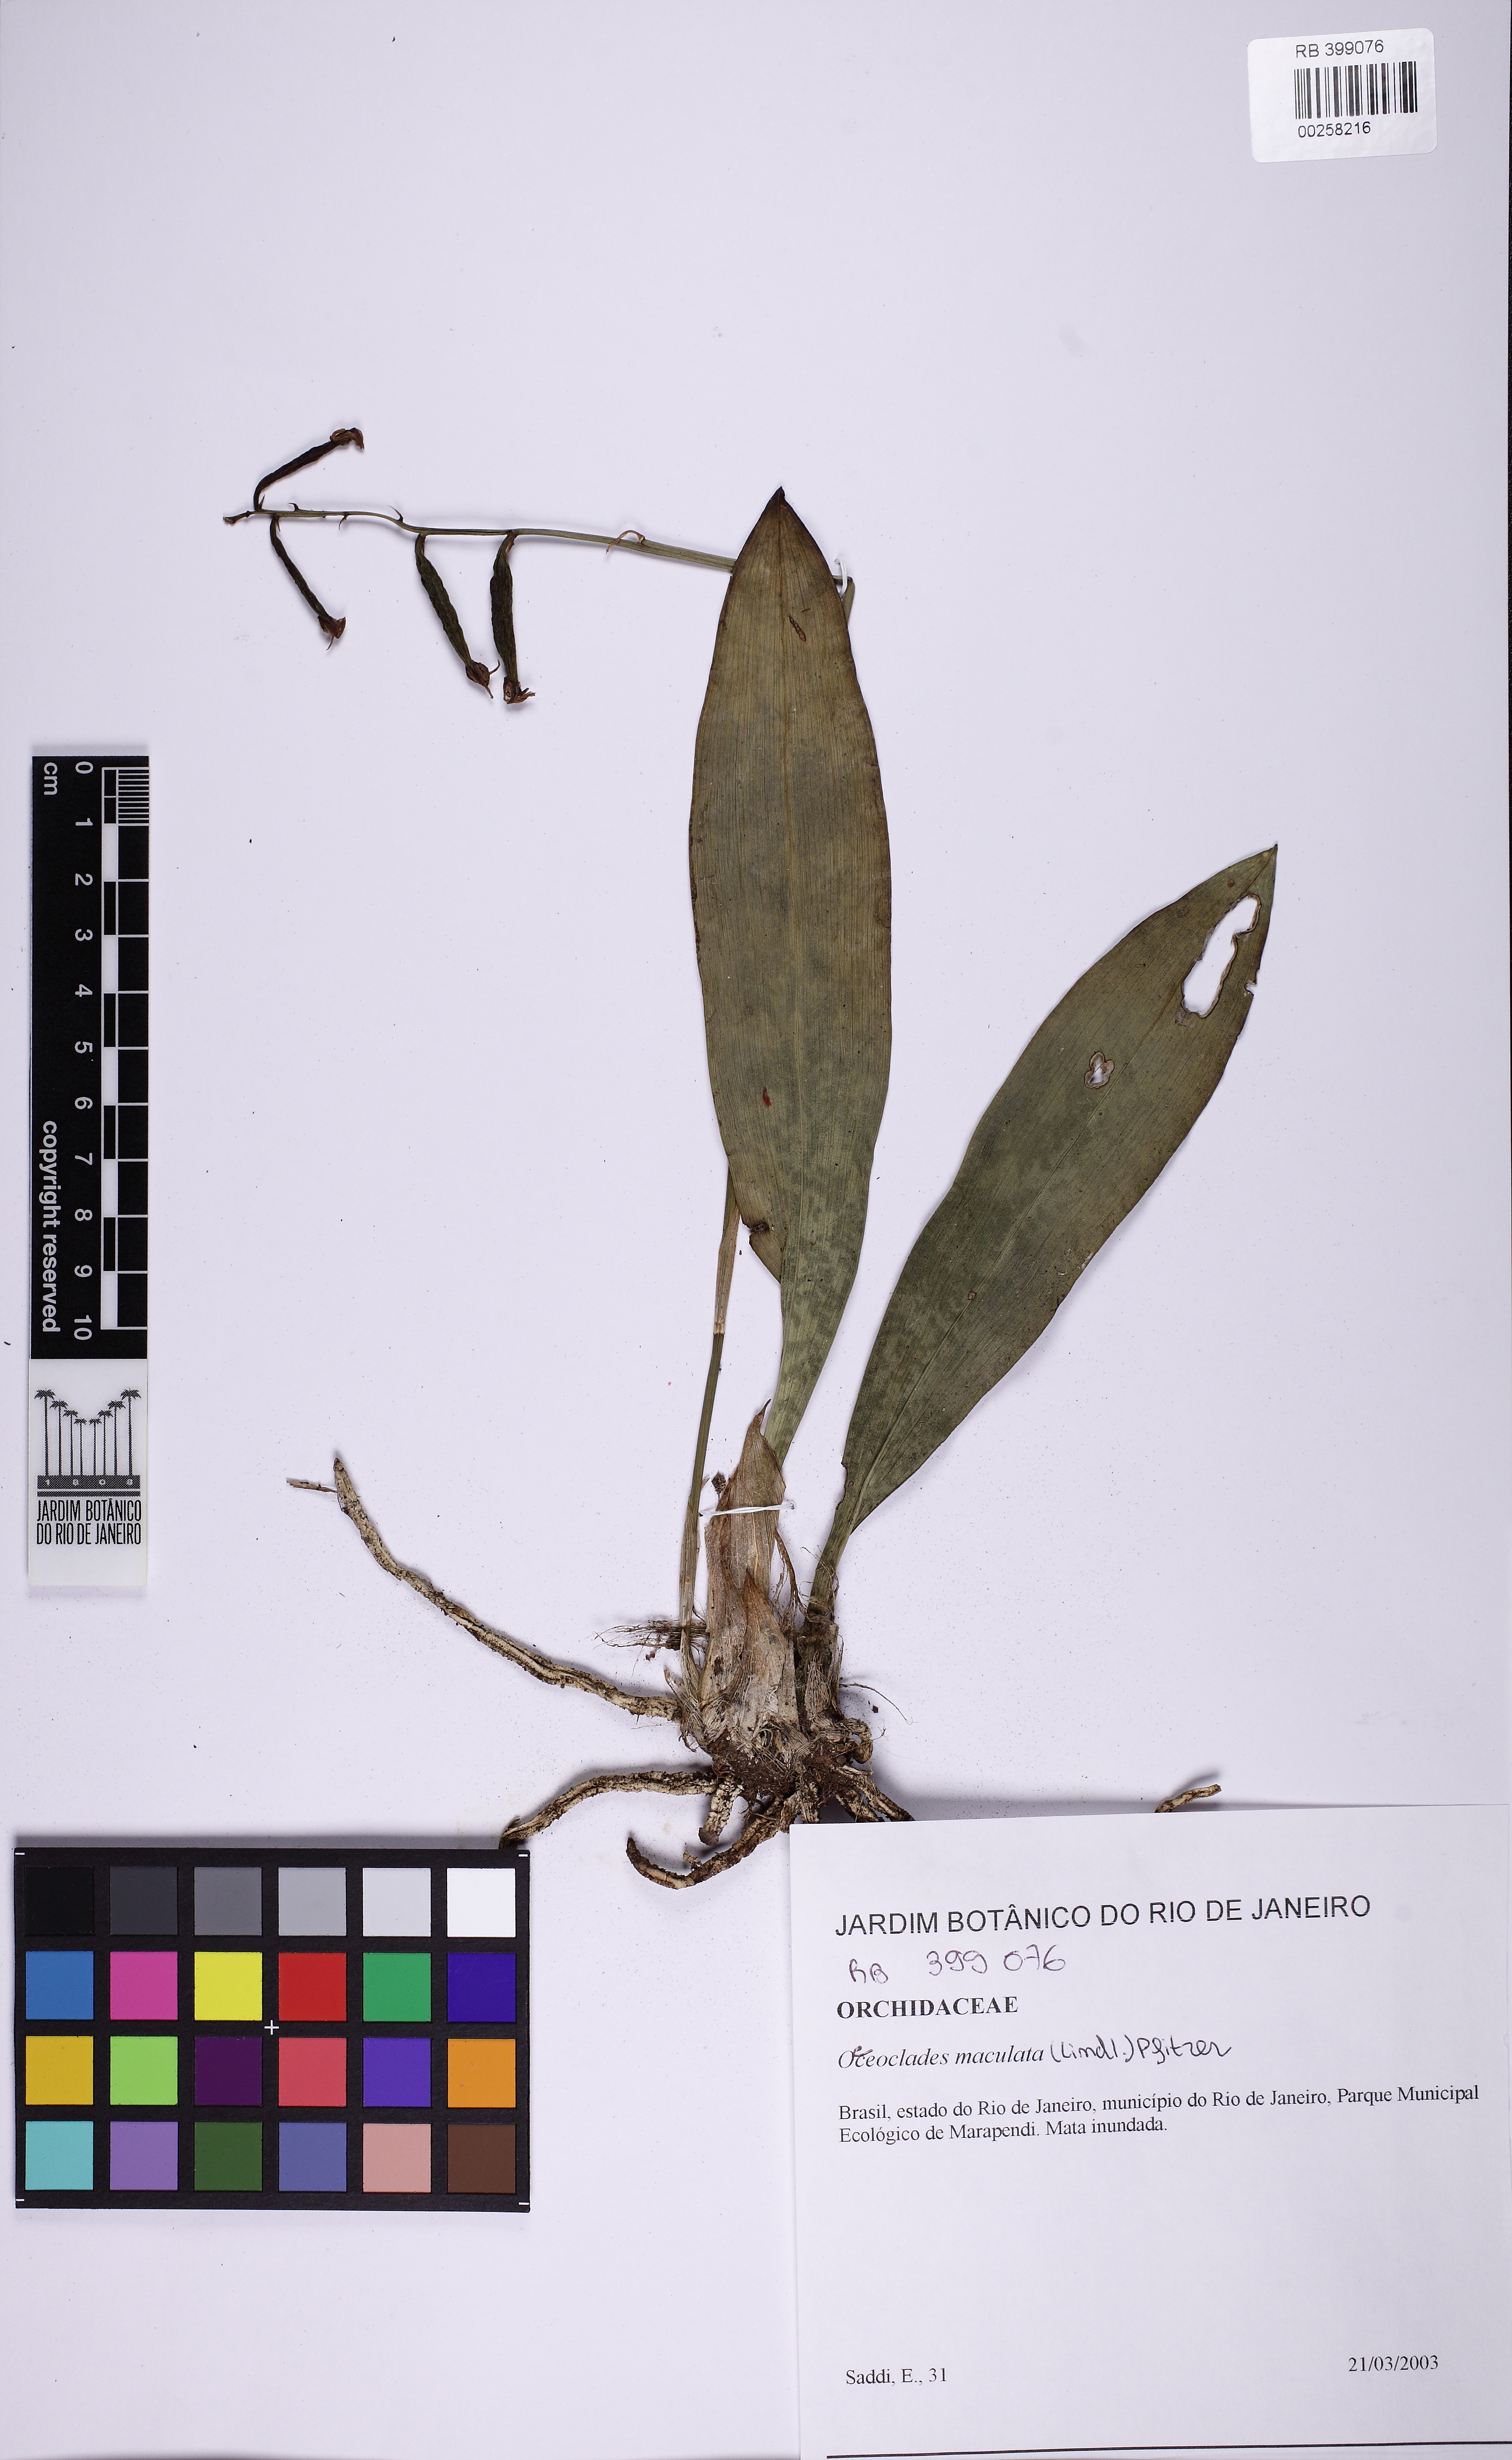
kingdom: Plantae
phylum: Tracheophyta
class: Liliopsida
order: Asparagales
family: Orchidaceae
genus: Eulophia
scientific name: Eulophia maculata
